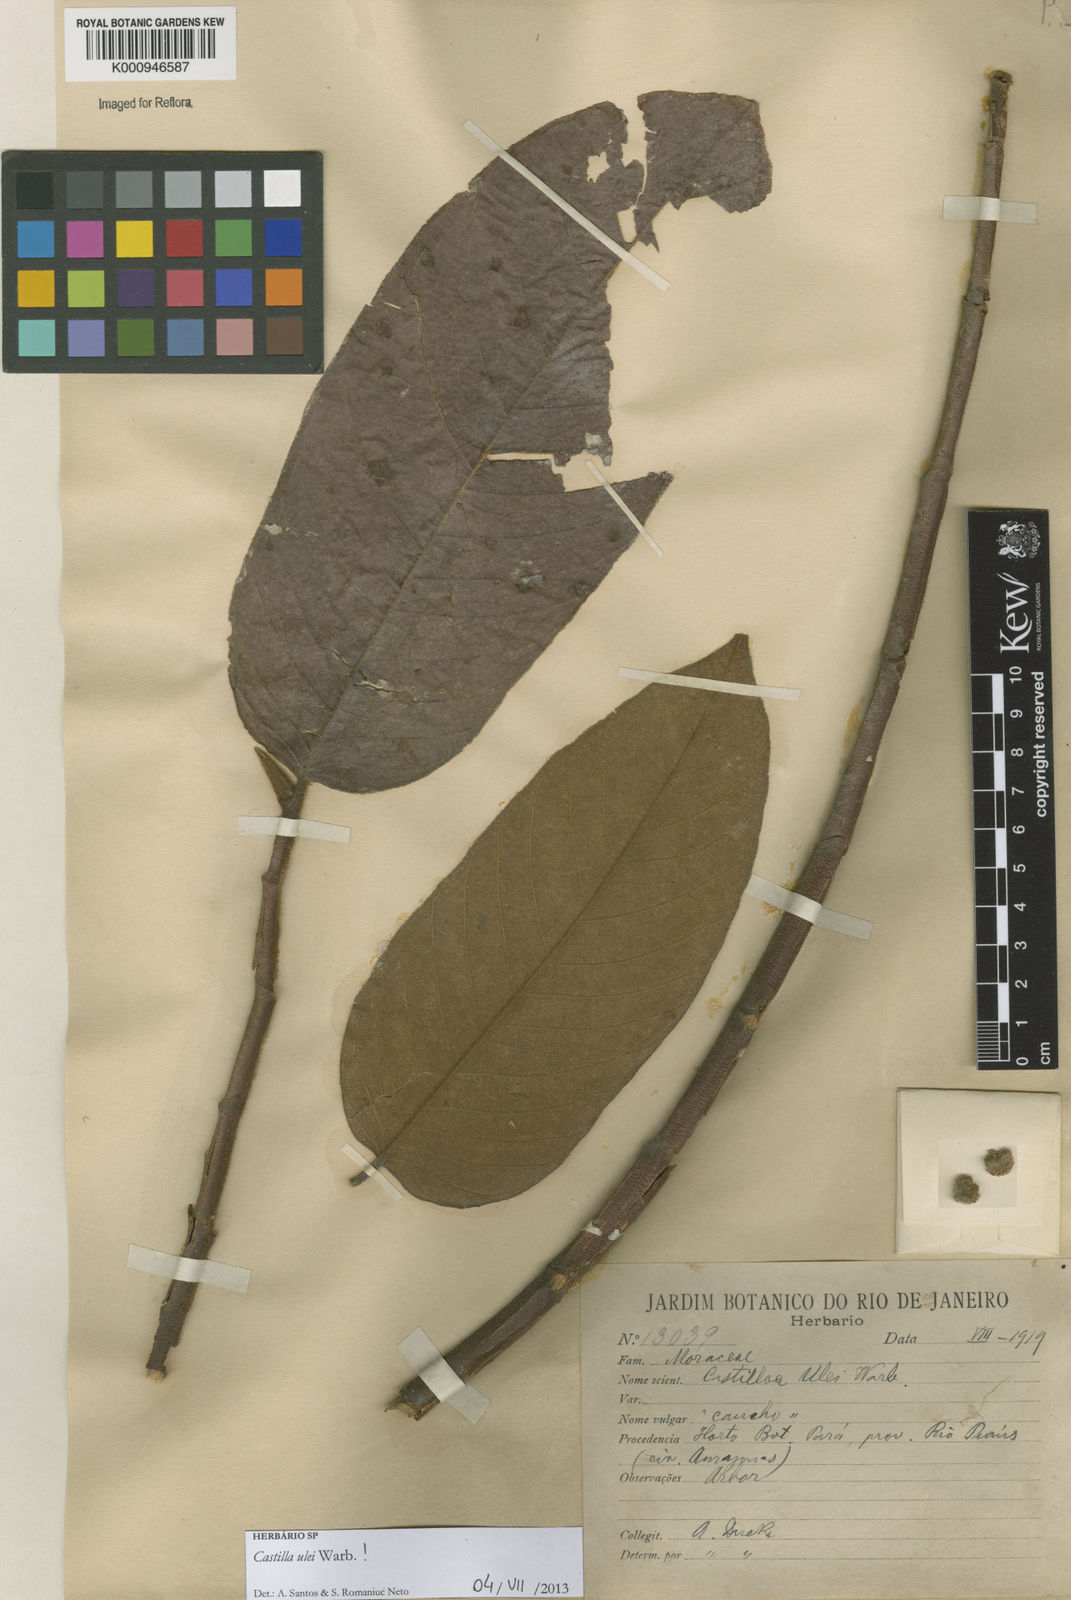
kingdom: Plantae
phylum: Tracheophyta
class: Magnoliopsida
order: Rosales
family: Moraceae
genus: Castilla
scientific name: Castilla ulei
